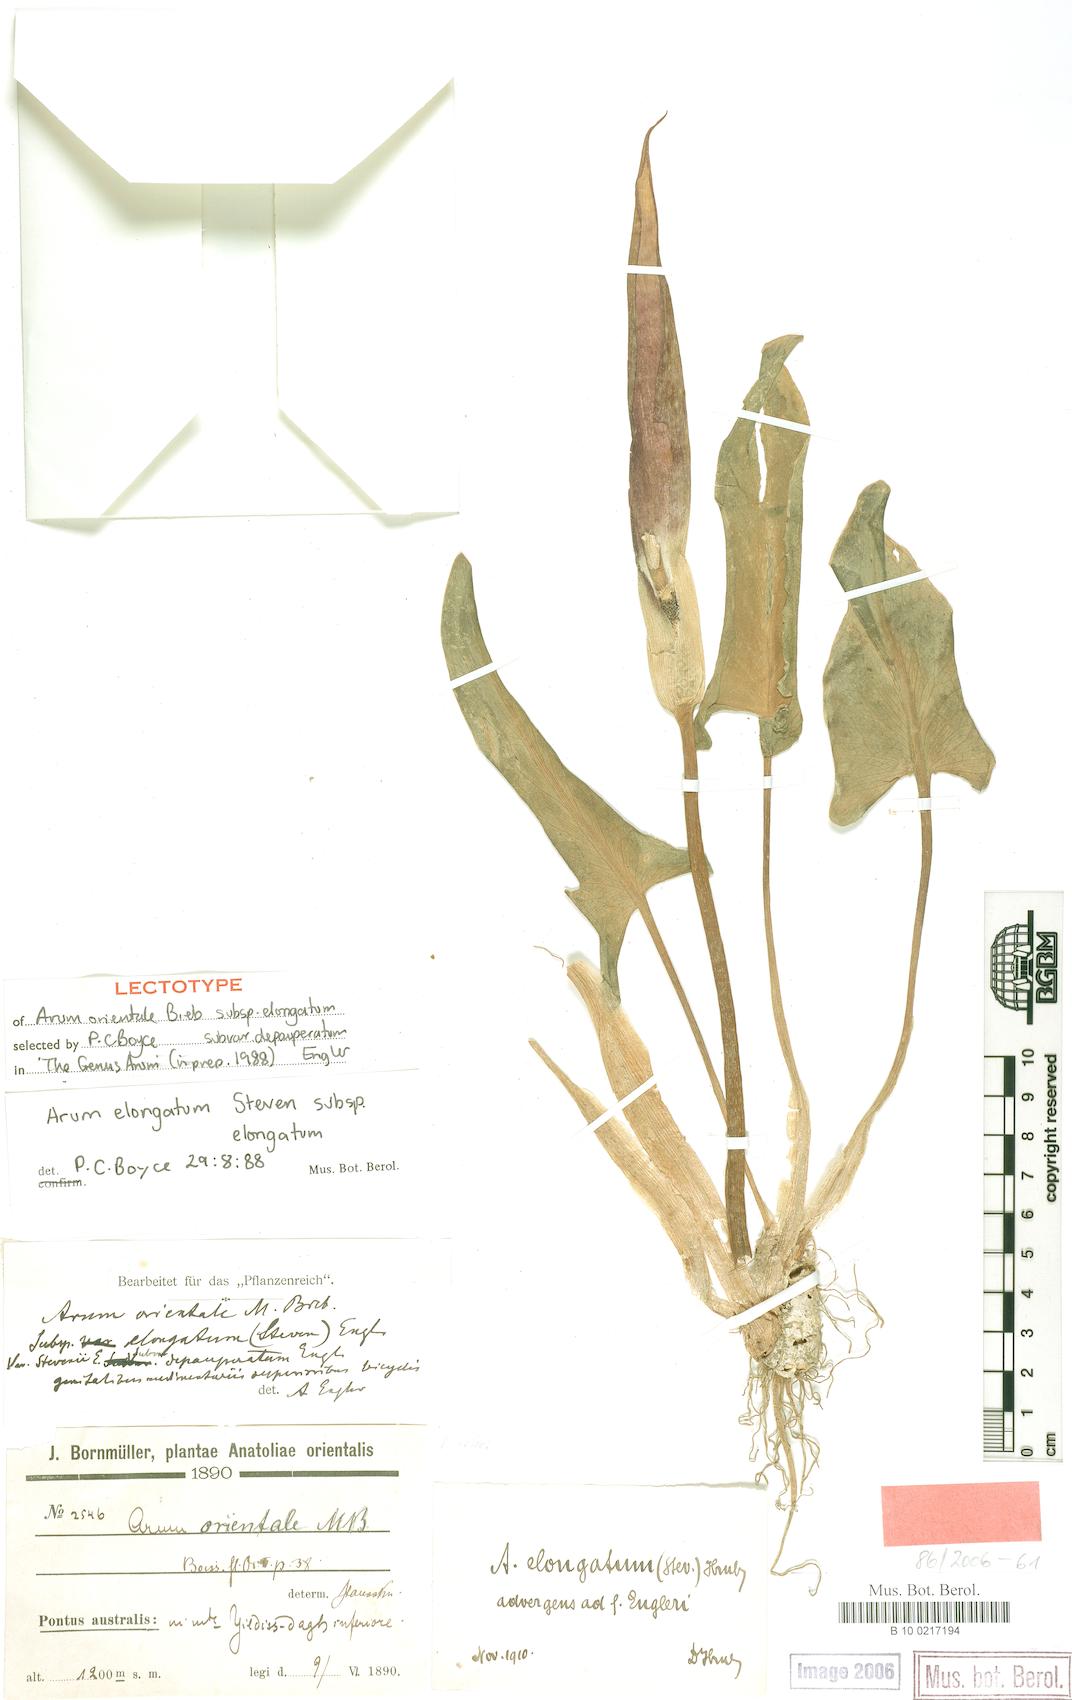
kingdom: Plantae
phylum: Tracheophyta
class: Liliopsida
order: Alismatales
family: Araceae
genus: Arum
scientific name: Arum orientale
